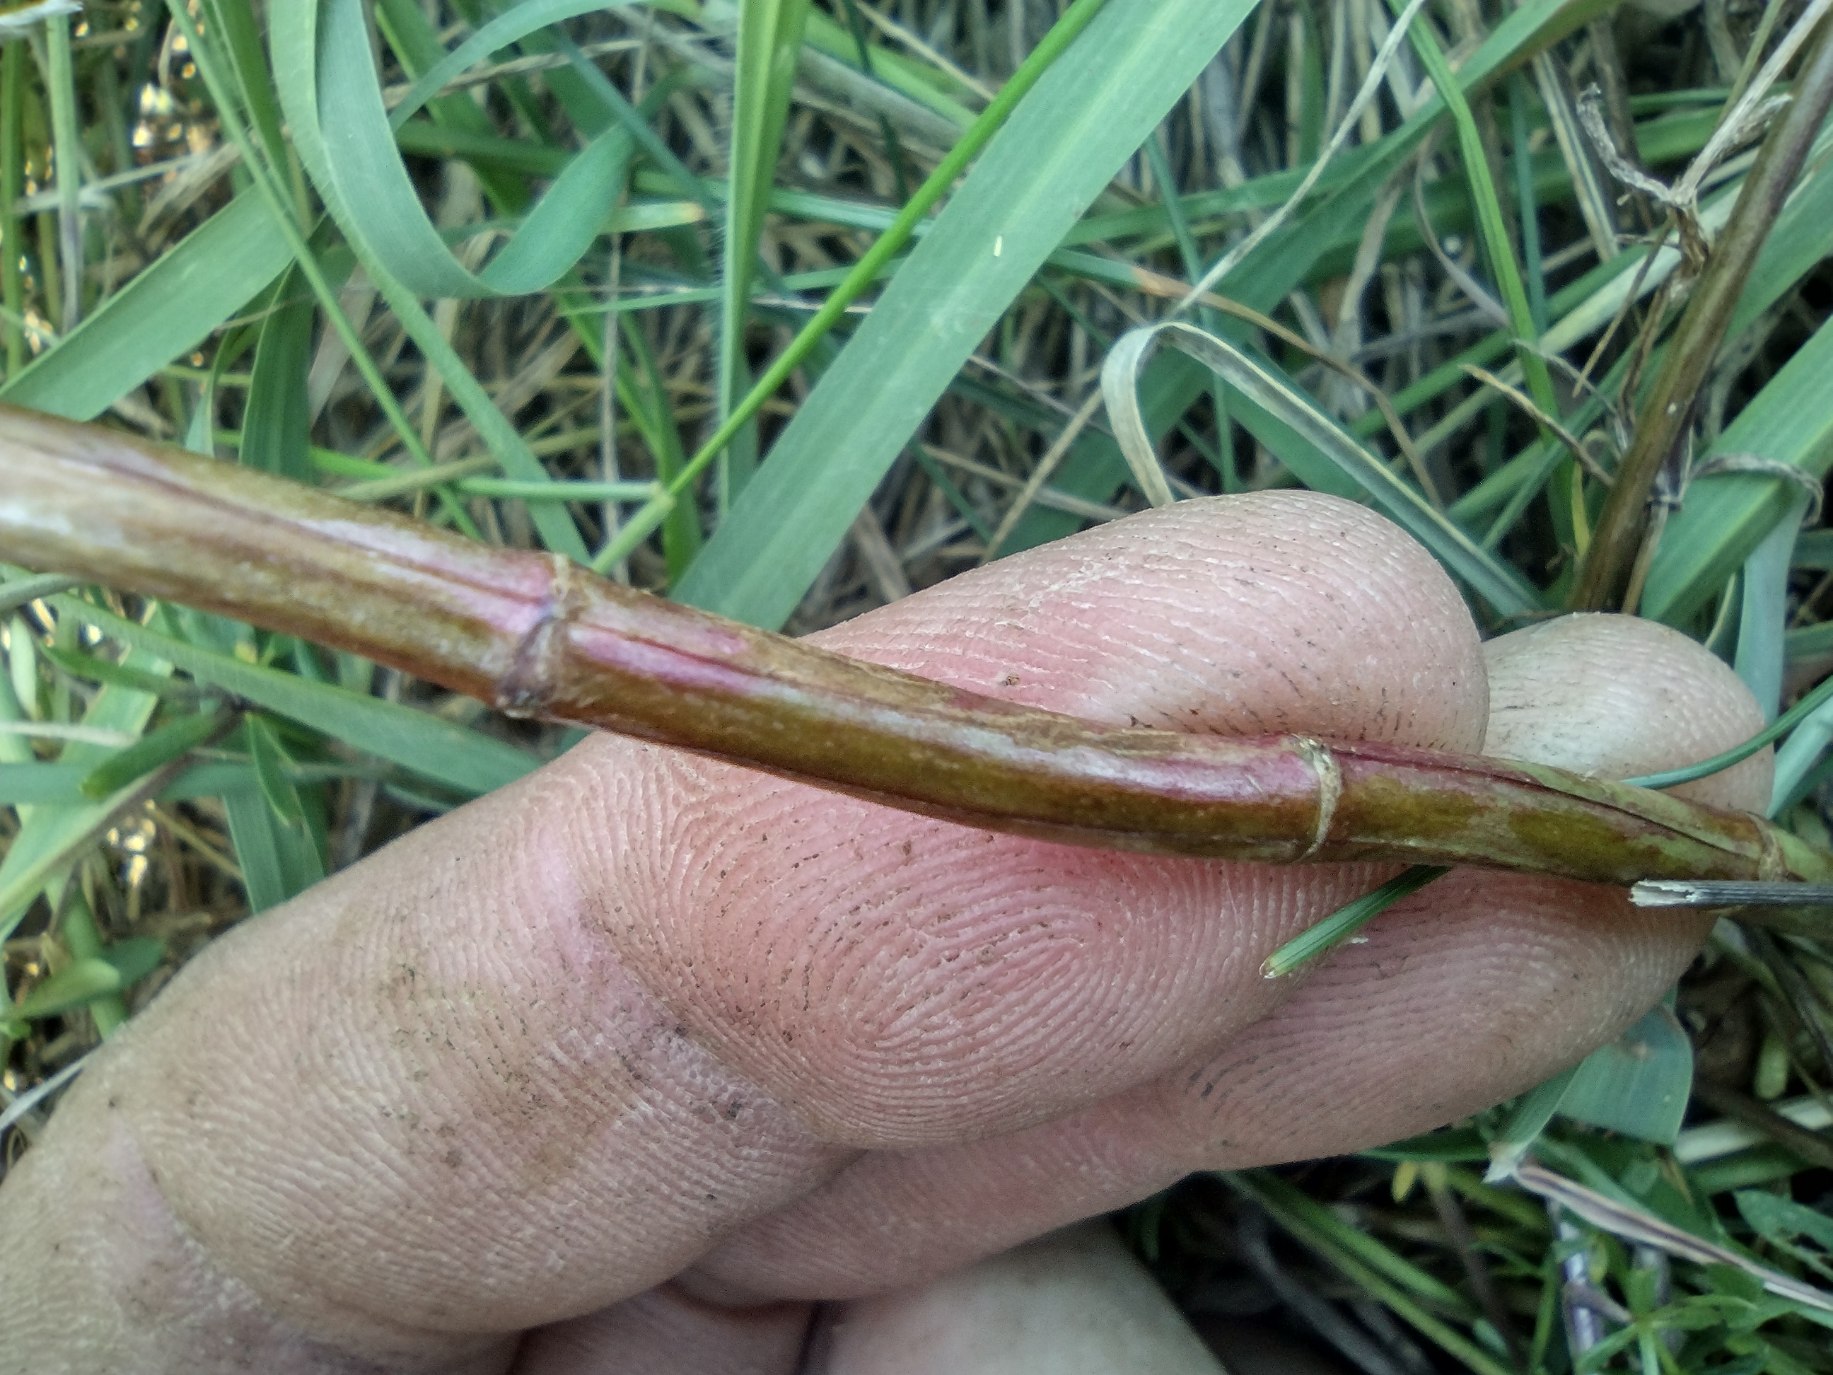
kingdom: Plantae
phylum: Tracheophyta
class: Magnoliopsida
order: Malpighiales
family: Hypericaceae
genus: Hypericum
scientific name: Hypericum maculatum
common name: Kantet perikon
